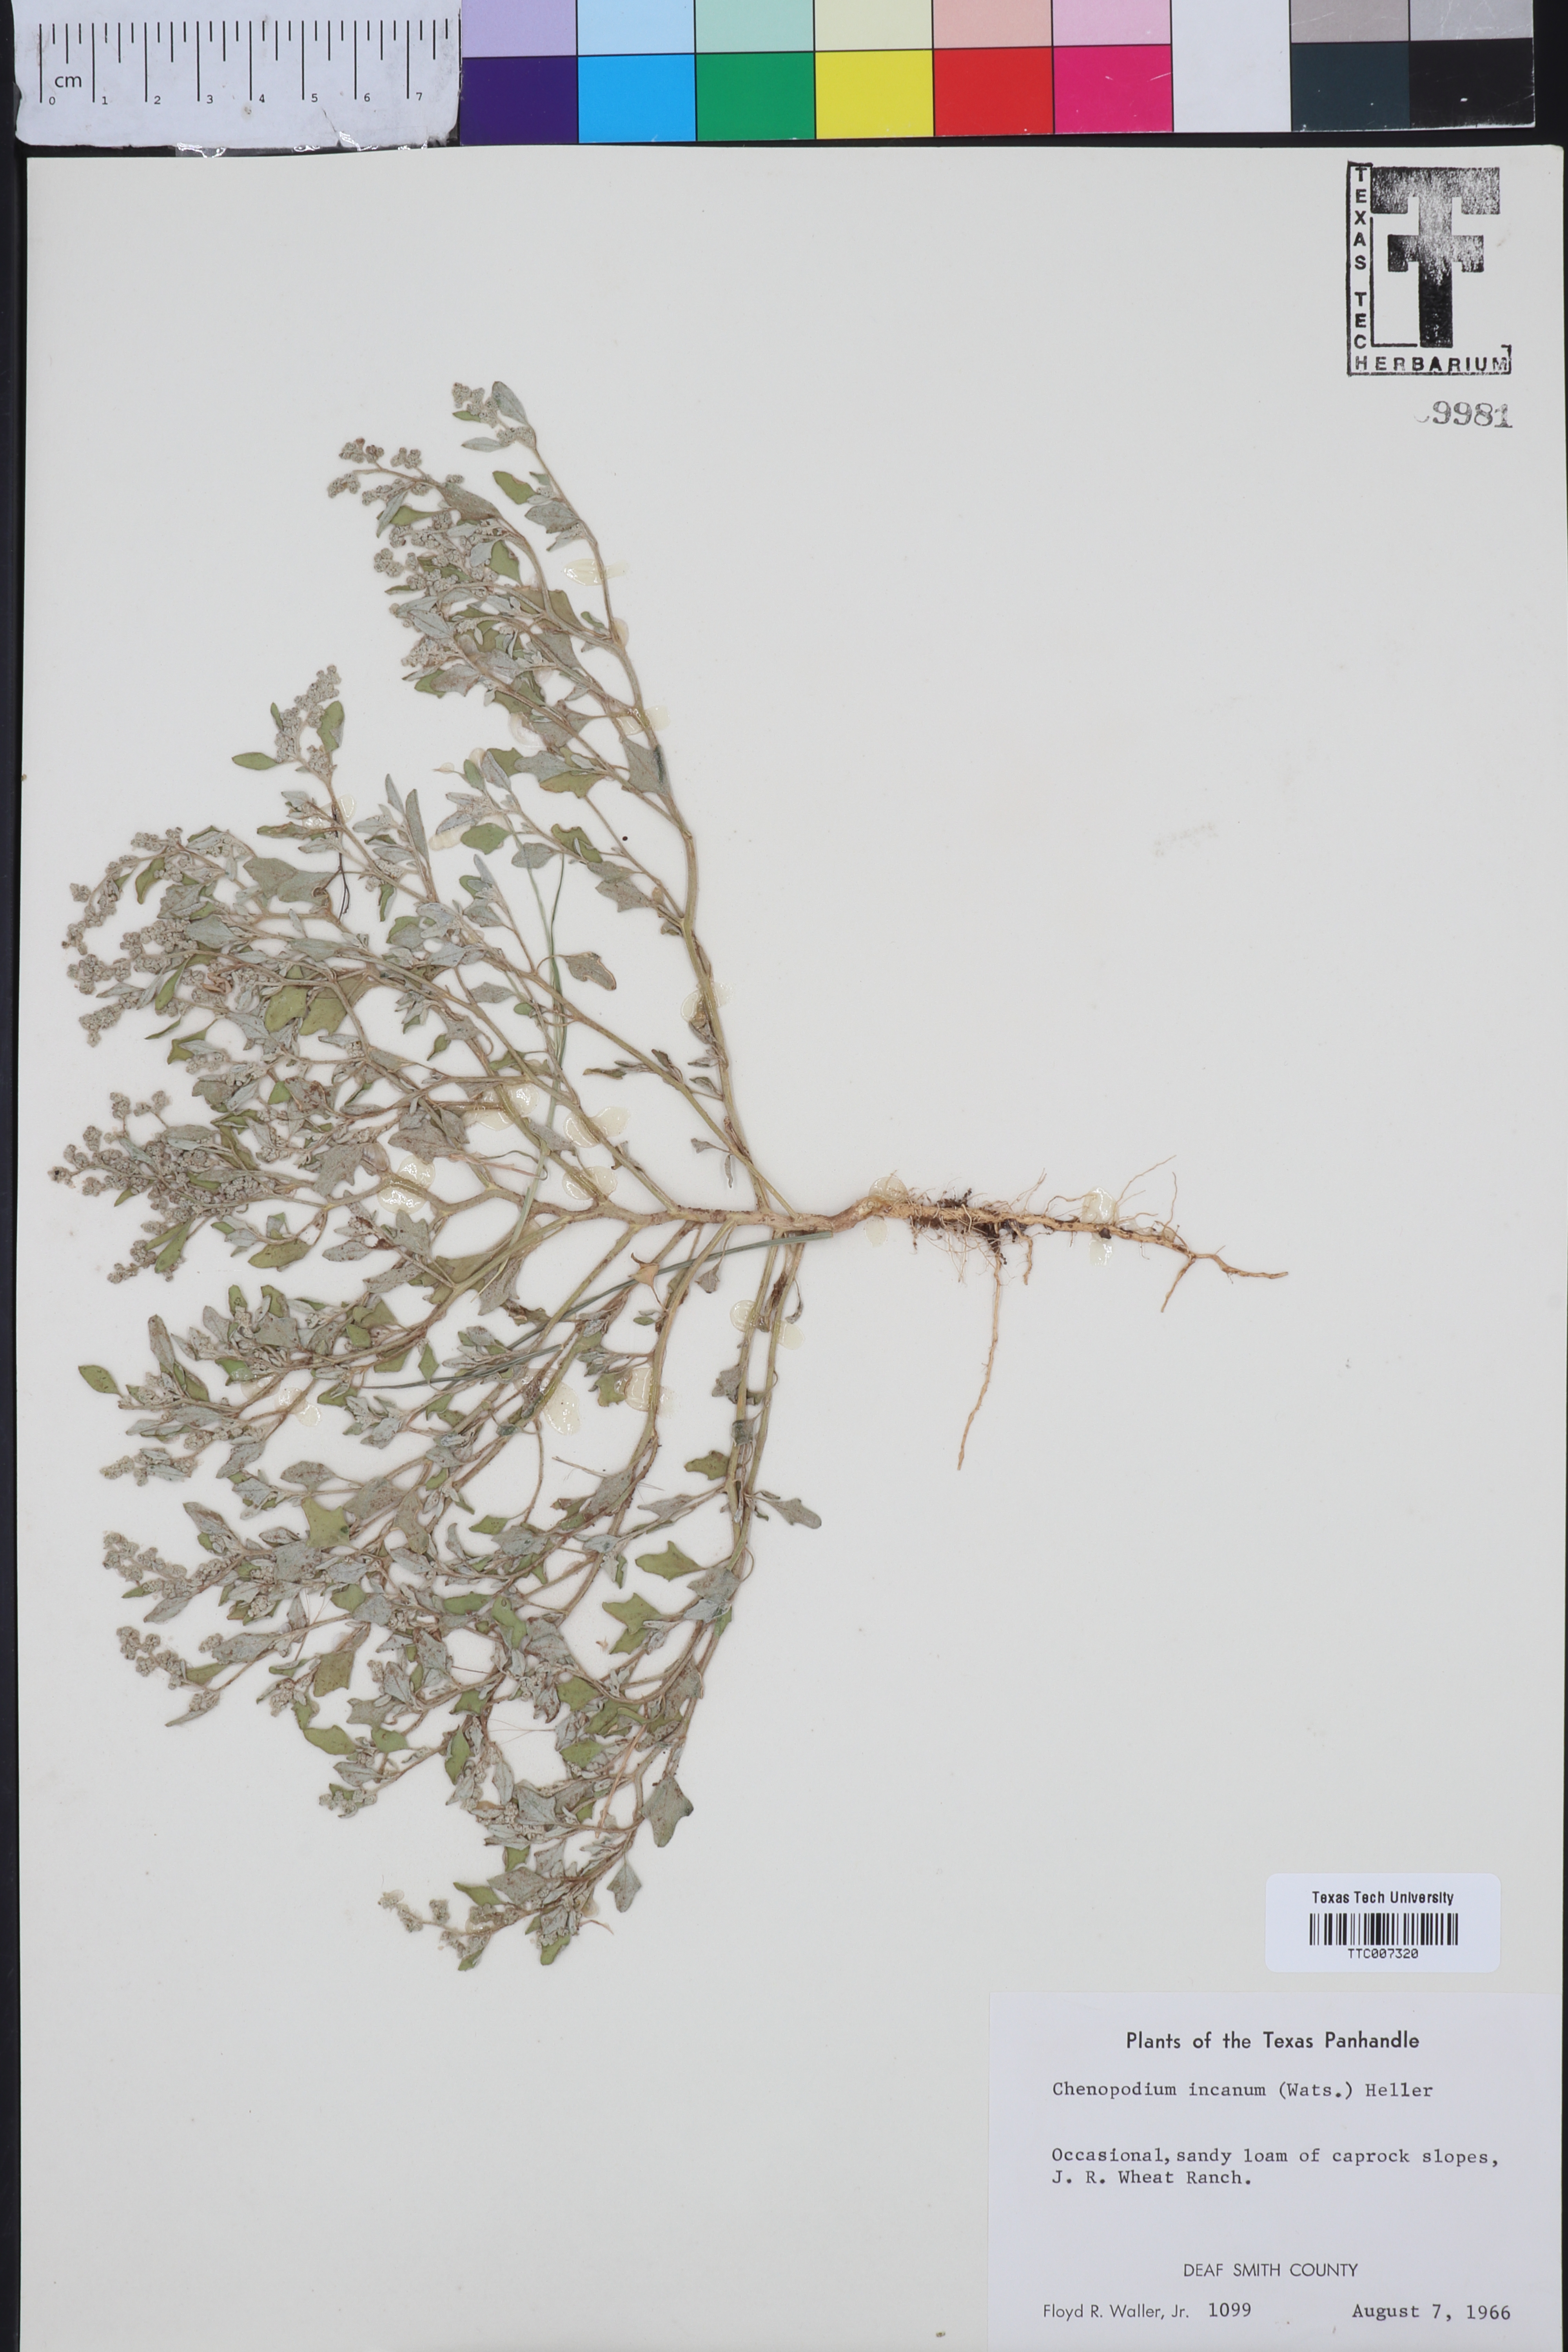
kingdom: Plantae
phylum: Tracheophyta
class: Magnoliopsida
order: Caryophyllales
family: Amaranthaceae
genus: Chenopodium
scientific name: Chenopodium incanum
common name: Hoary goosefoot
